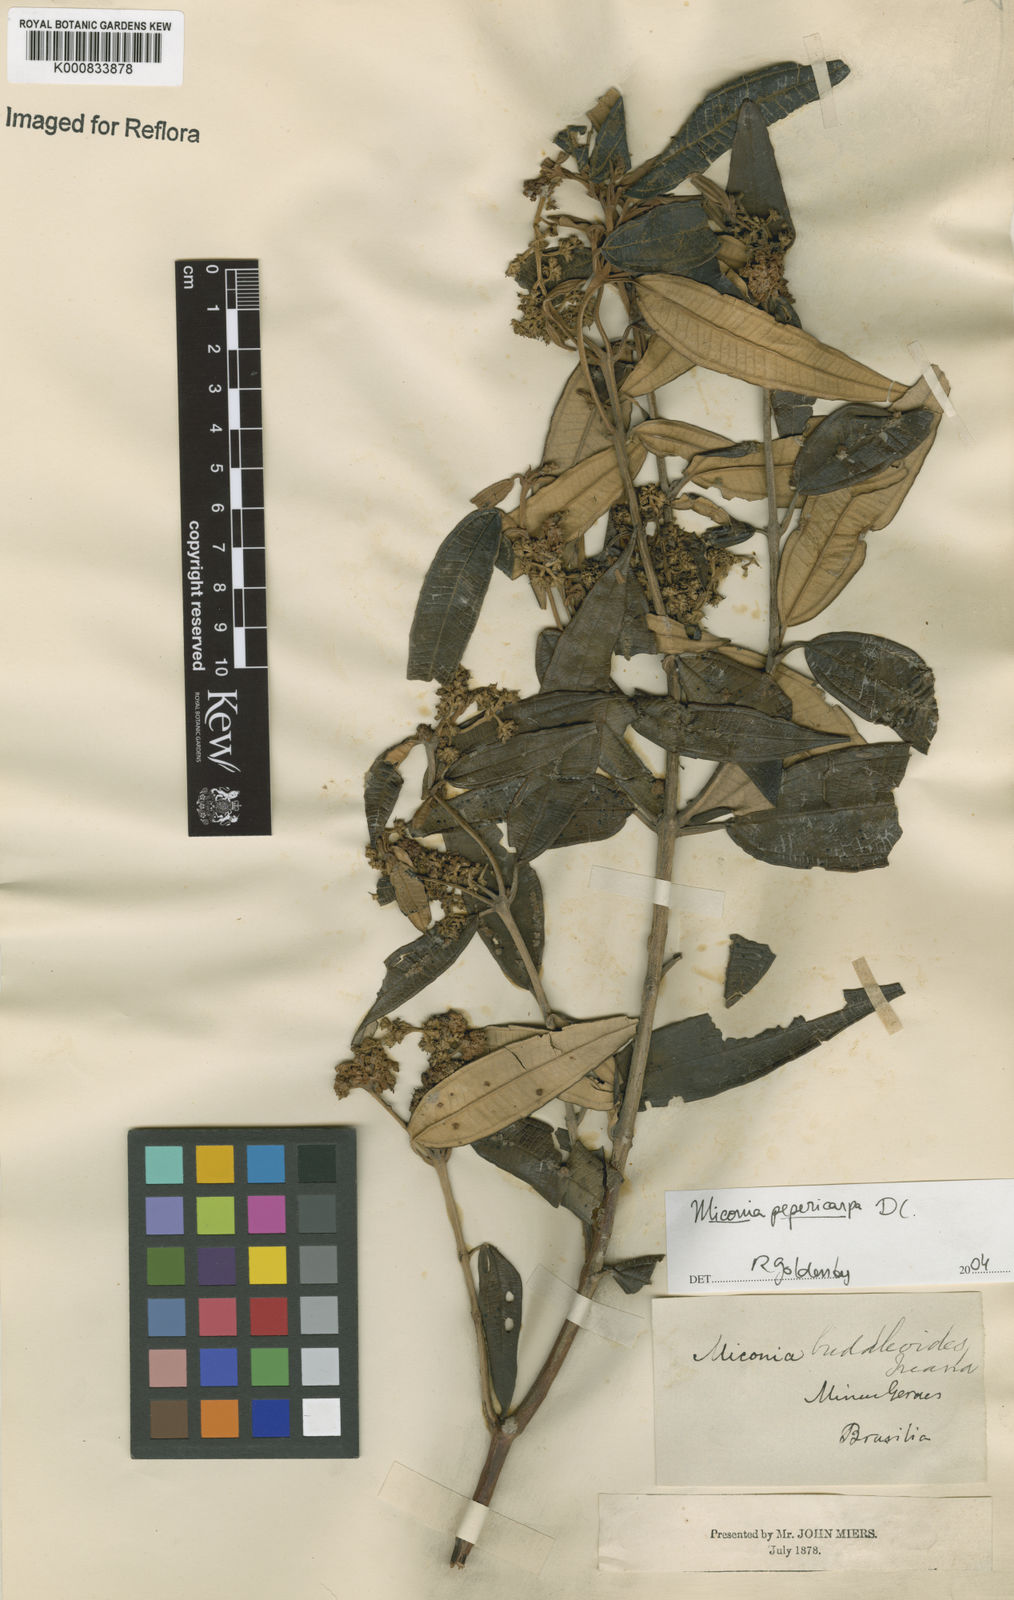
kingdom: Plantae
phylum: Tracheophyta
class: Magnoliopsida
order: Myrtales
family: Melastomataceae
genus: Miconia
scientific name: Miconia pepericarpa
